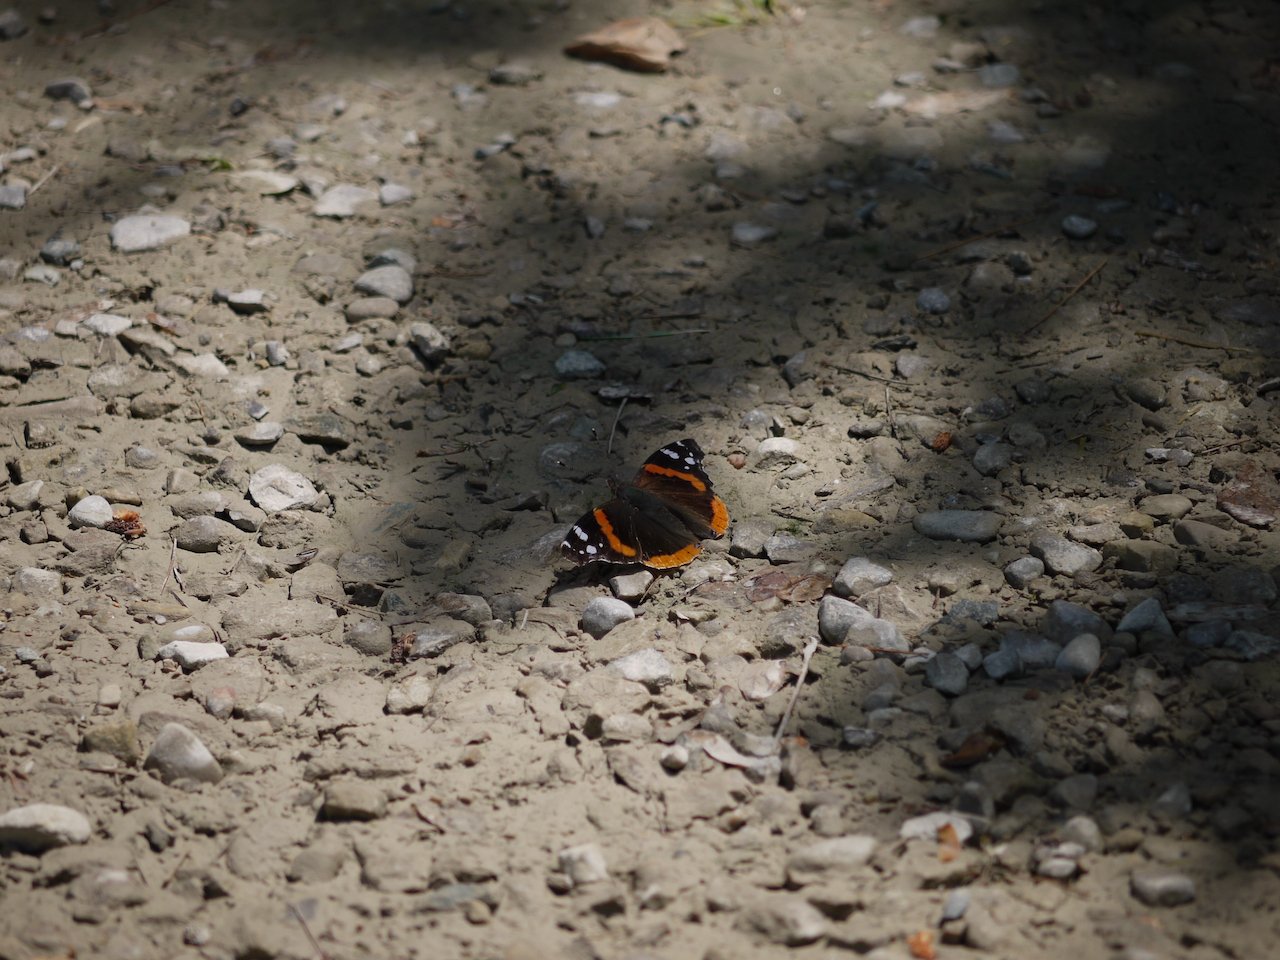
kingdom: Animalia
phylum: Arthropoda
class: Insecta
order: Lepidoptera
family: Nymphalidae
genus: Vanessa
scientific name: Vanessa atalanta
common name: Red Admiral
